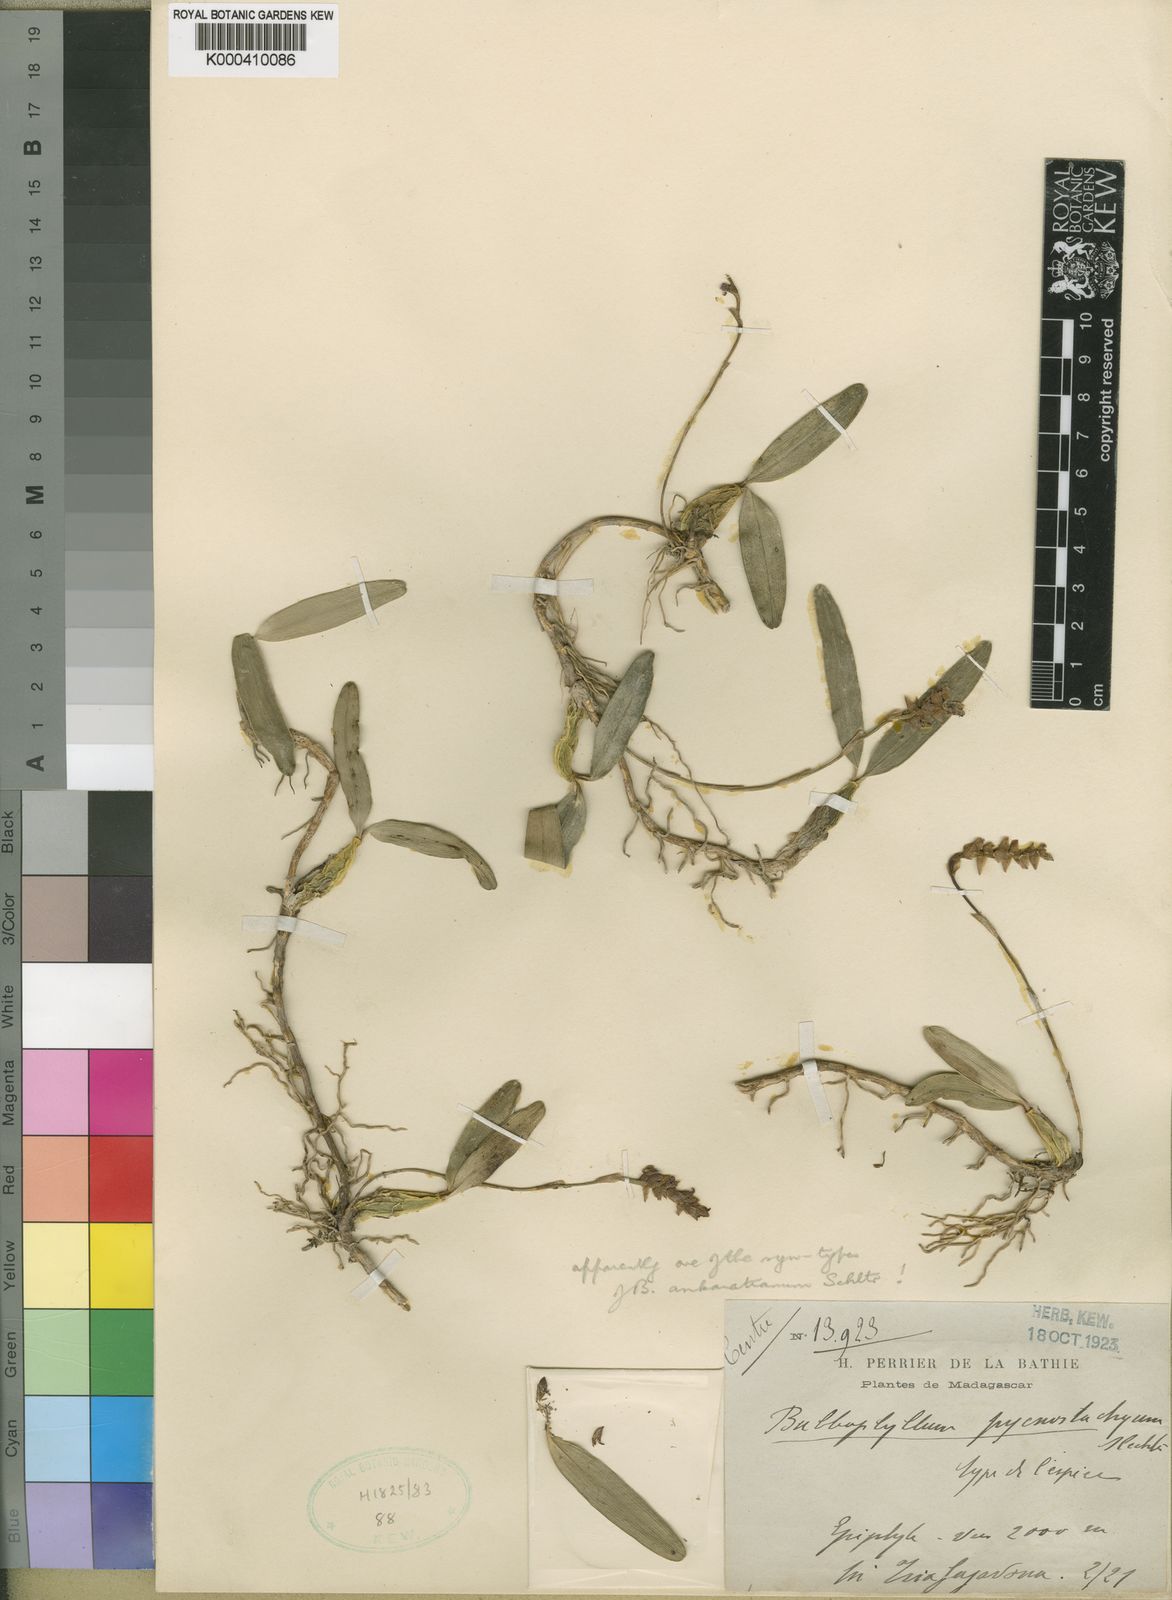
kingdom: Plantae
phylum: Tracheophyta
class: Liliopsida
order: Asparagales
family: Orchidaceae
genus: Bulbophyllum
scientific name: Bulbophyllum ankaratranum
